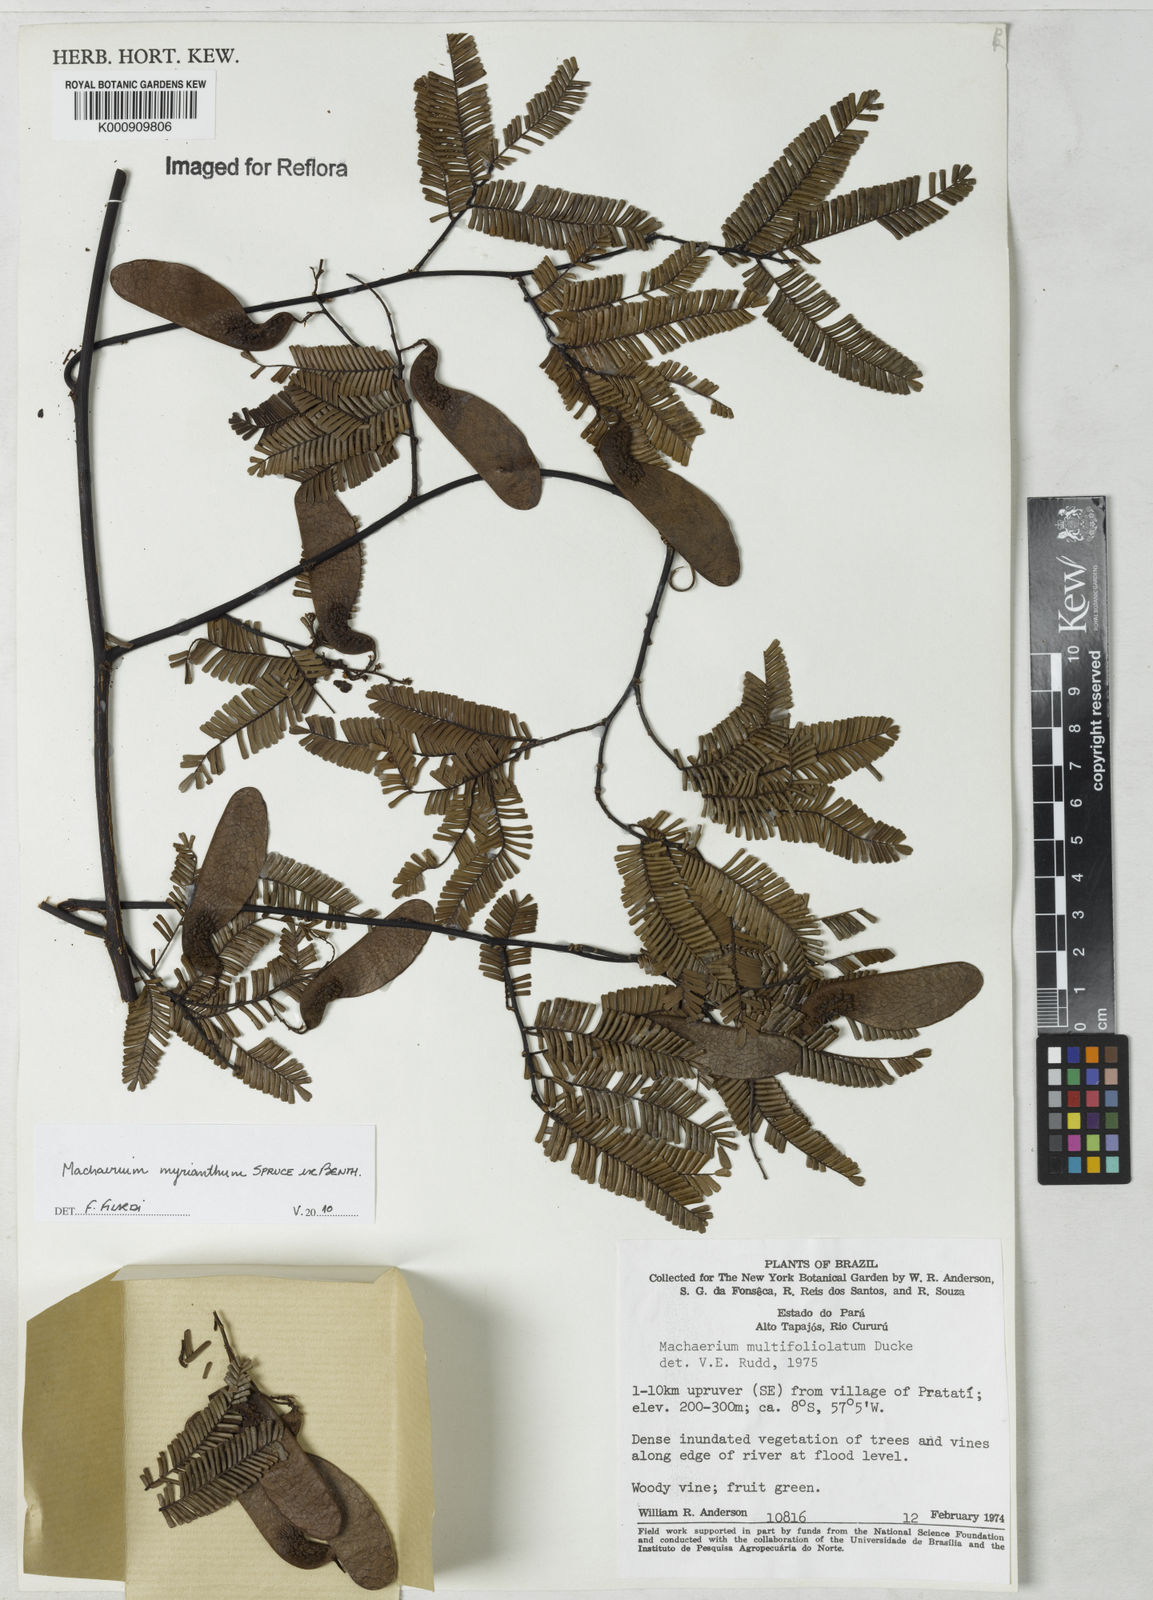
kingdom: Plantae
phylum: Tracheophyta
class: Magnoliopsida
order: Fabales
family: Fabaceae
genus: Machaerium
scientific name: Machaerium multifoliolatum
